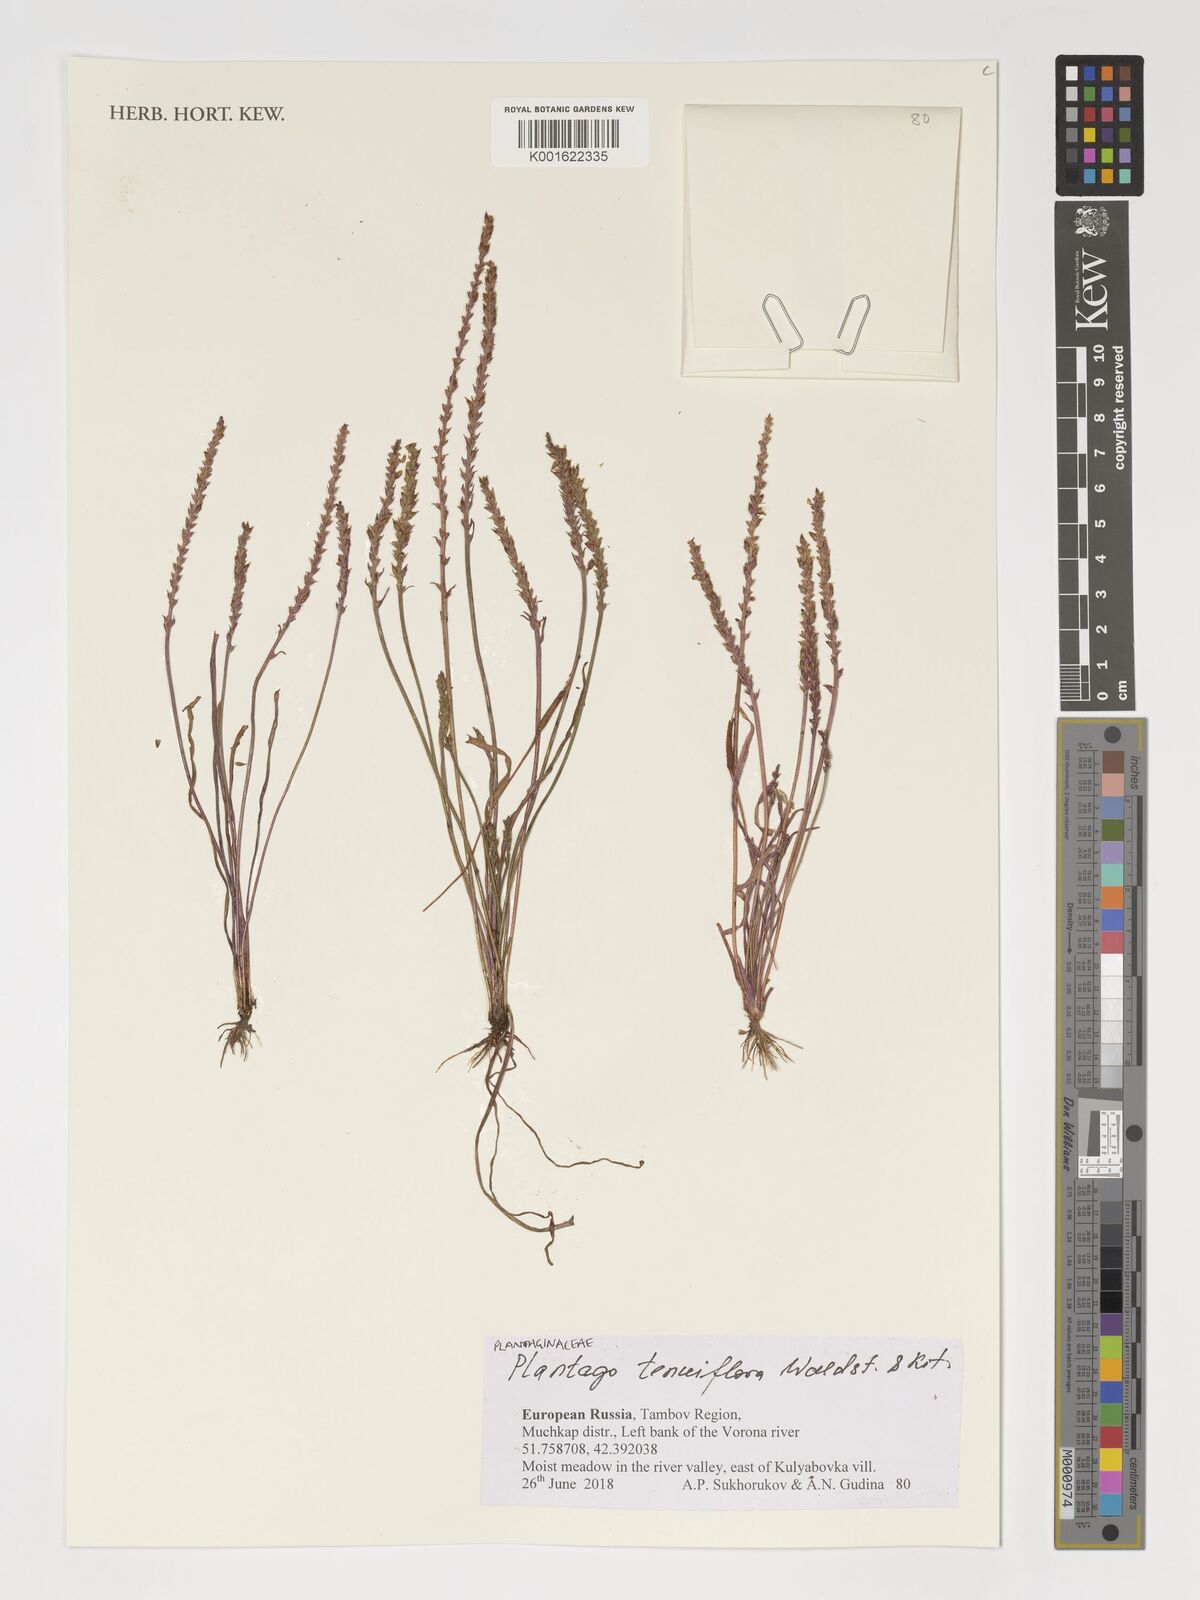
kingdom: Plantae
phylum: Tracheophyta
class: Magnoliopsida
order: Lamiales
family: Plantaginaceae
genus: Plantago
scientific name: Plantago tenuiflora
